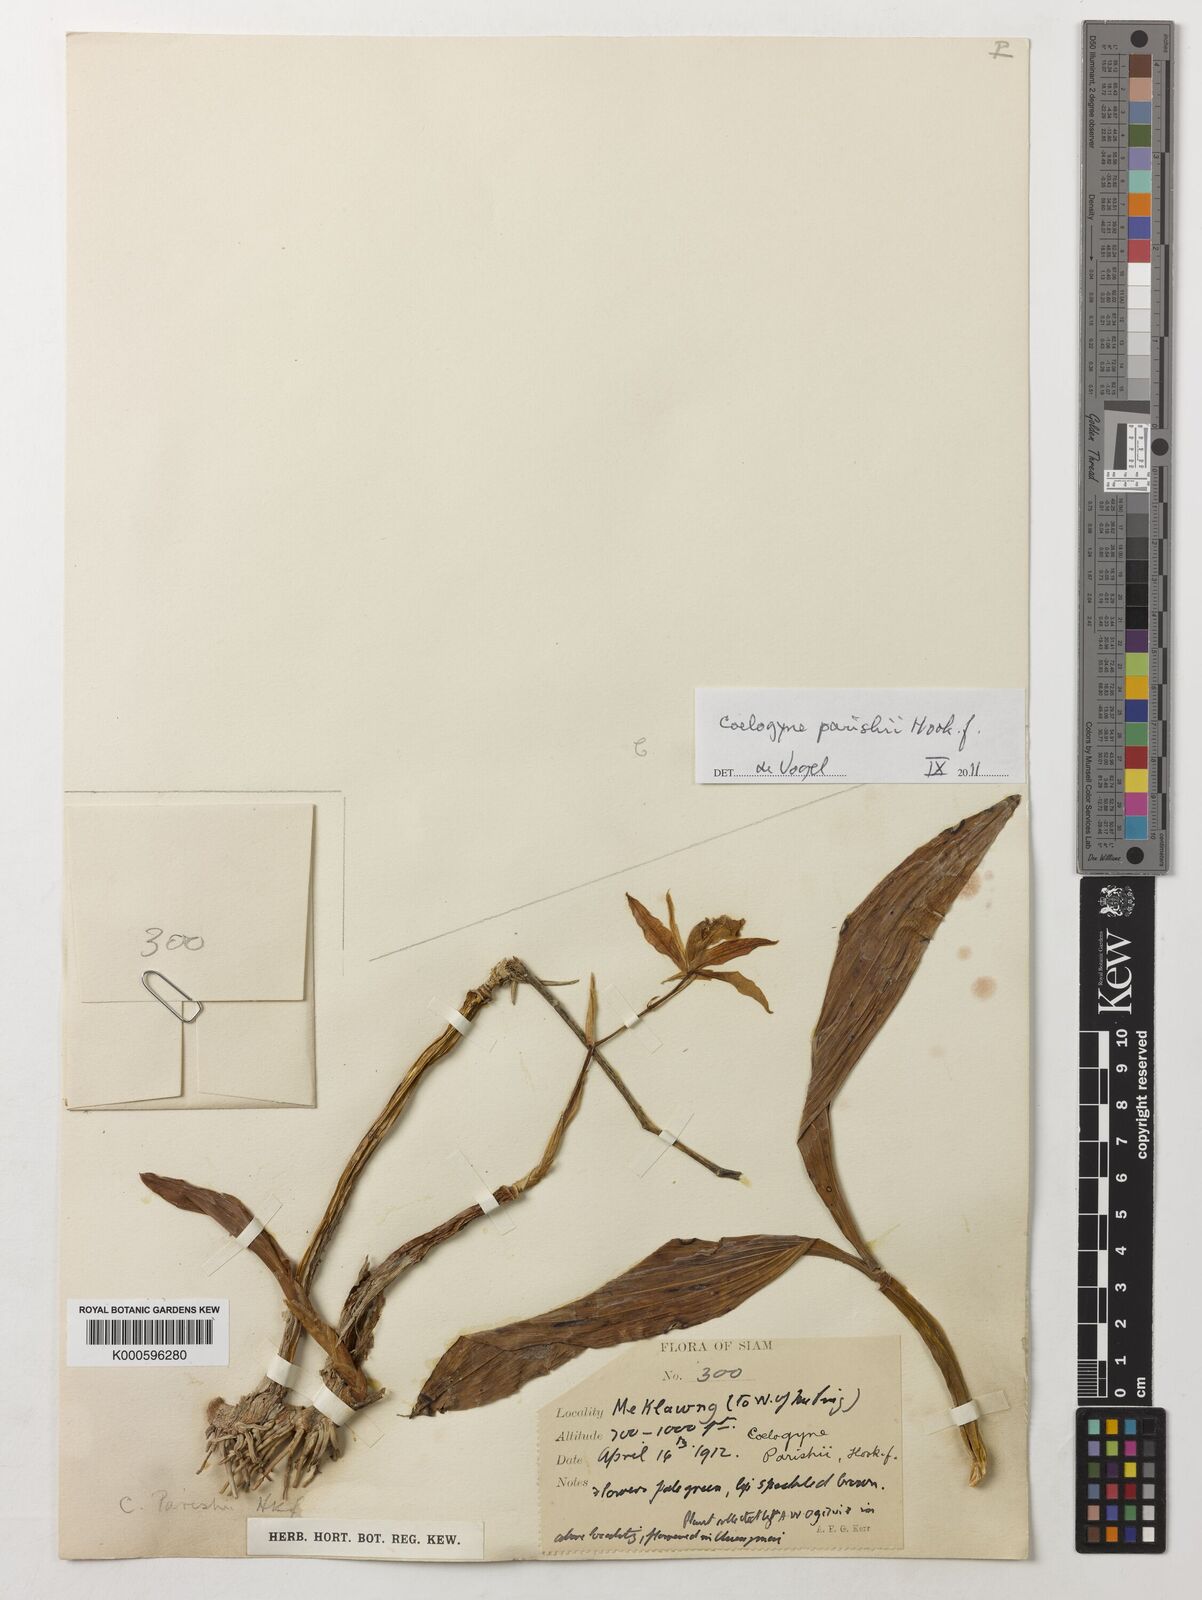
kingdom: Plantae
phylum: Tracheophyta
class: Liliopsida
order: Asparagales
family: Orchidaceae
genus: Coelogyne
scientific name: Coelogyne parishii
